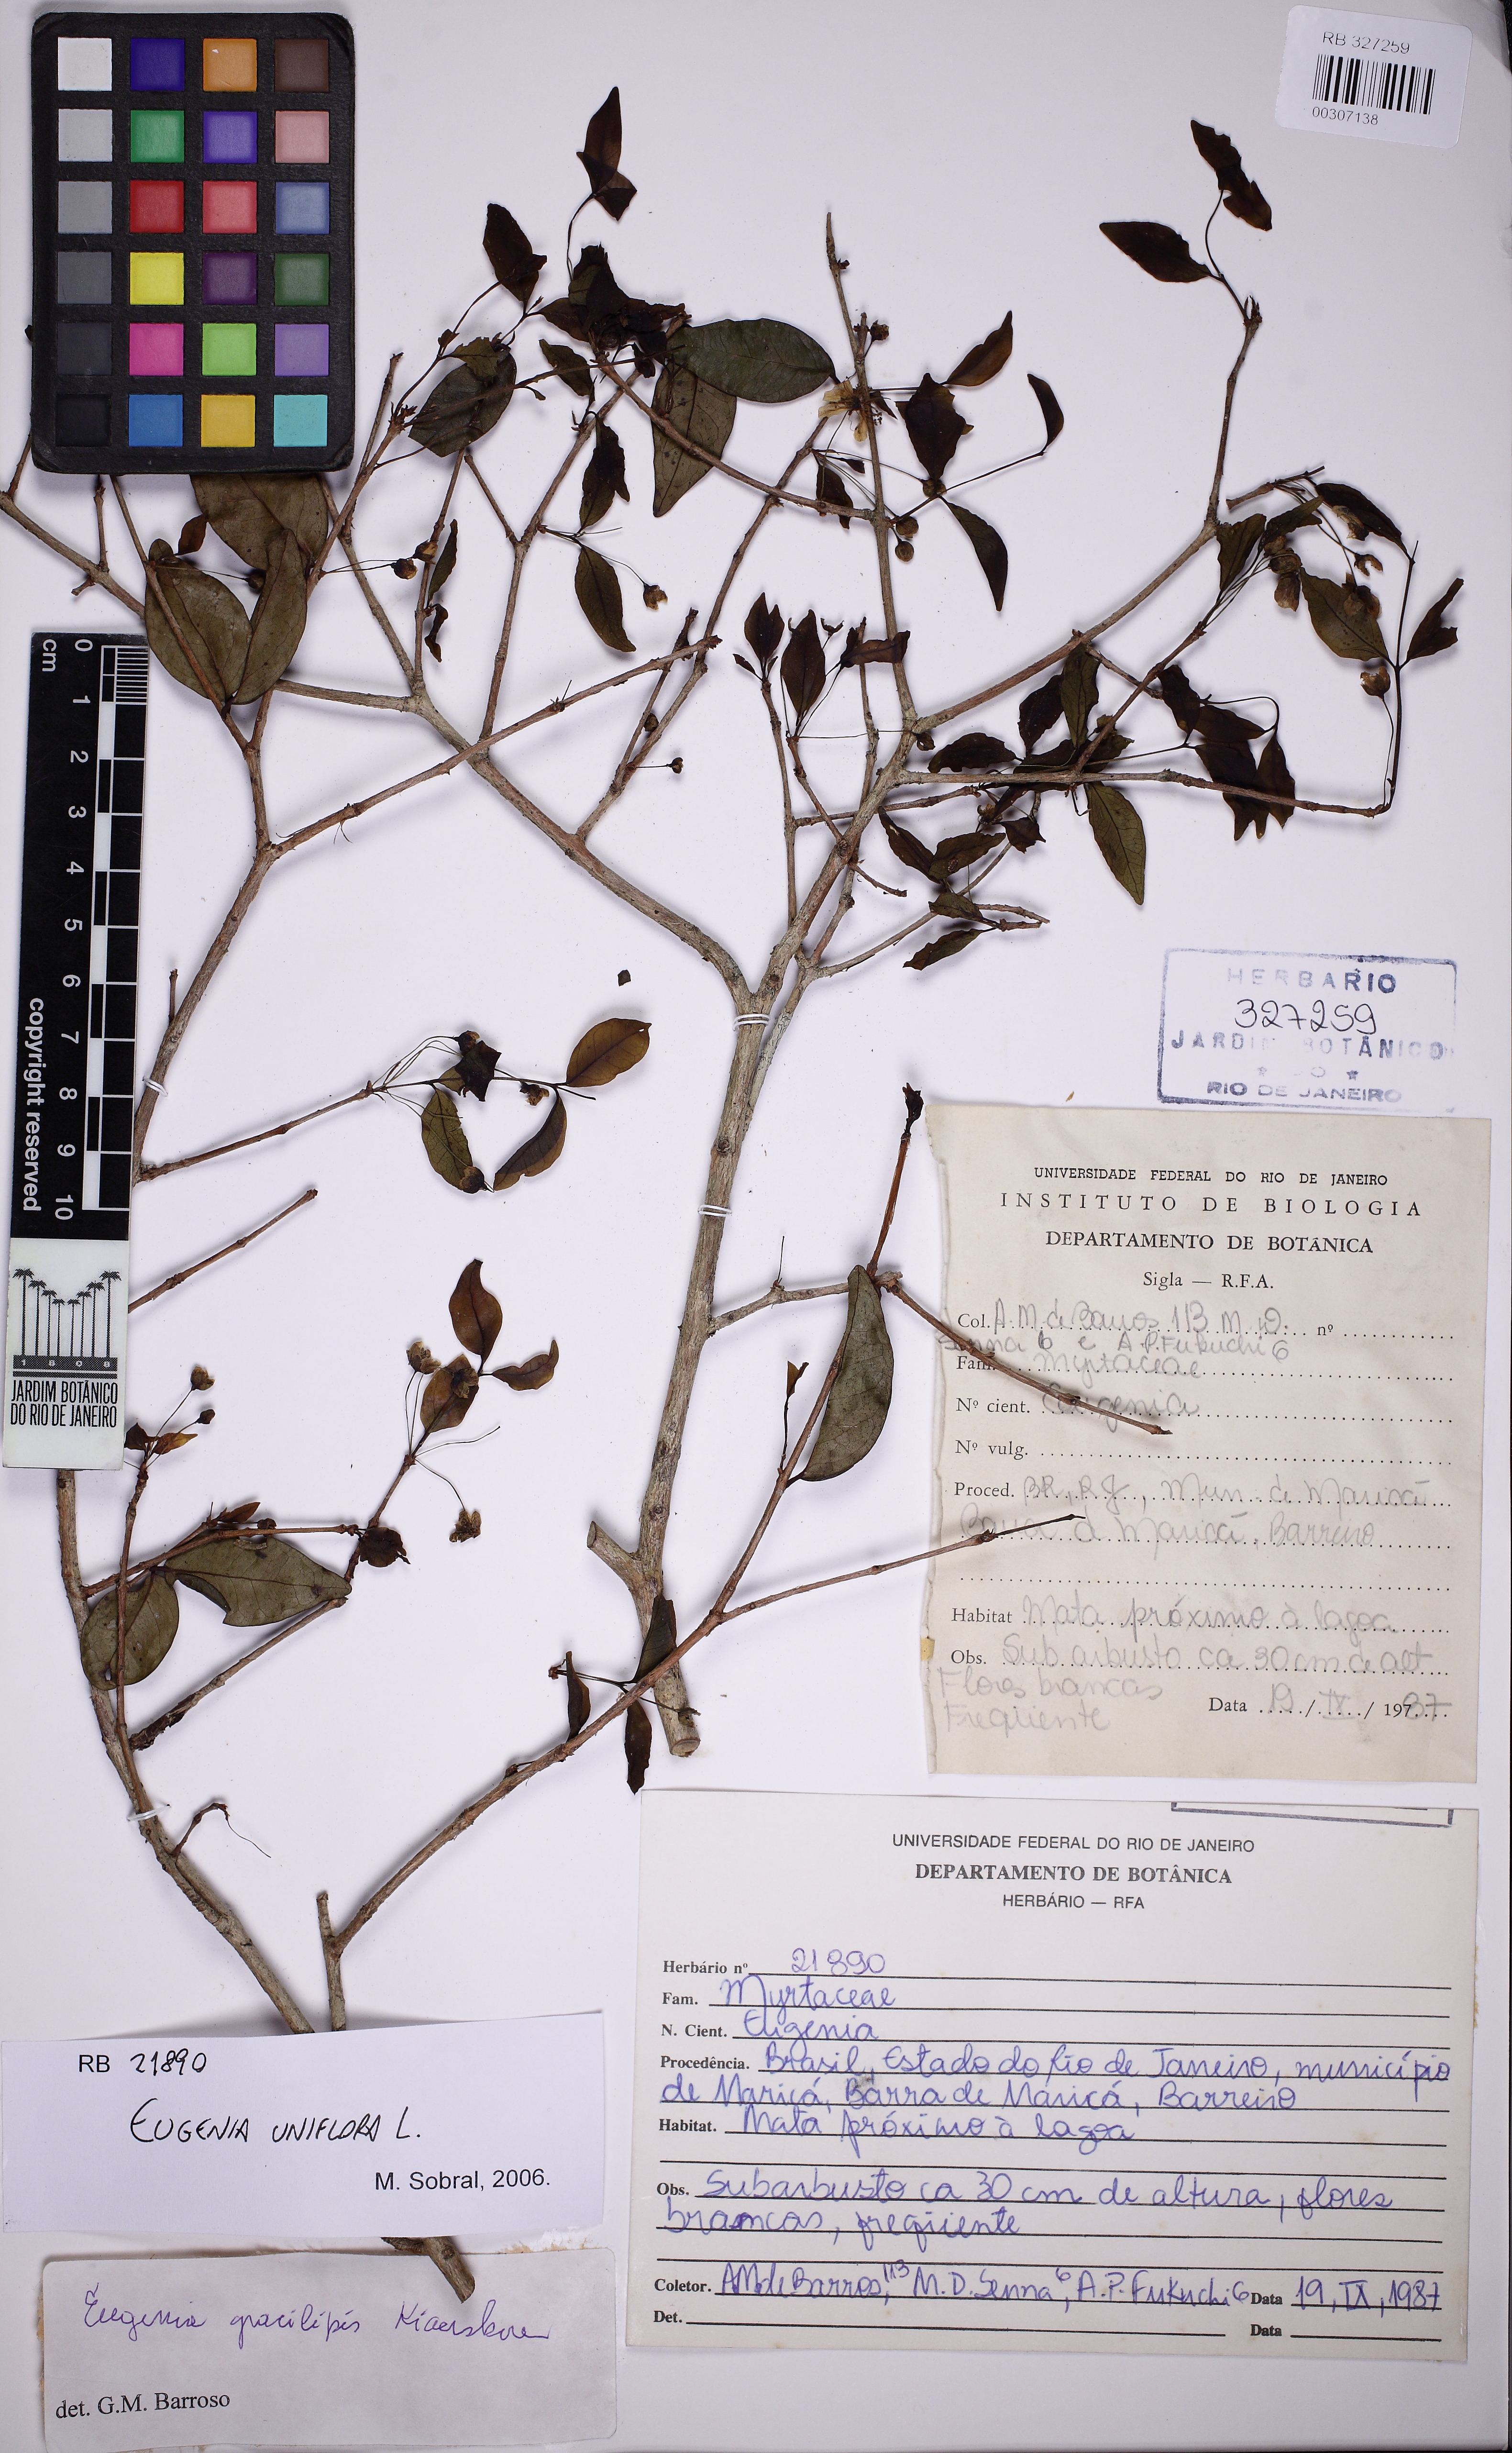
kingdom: Plantae
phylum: Tracheophyta
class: Magnoliopsida
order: Myrtales
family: Myrtaceae
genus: Eugenia
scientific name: Eugenia uniflora
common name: Surinam cherry
